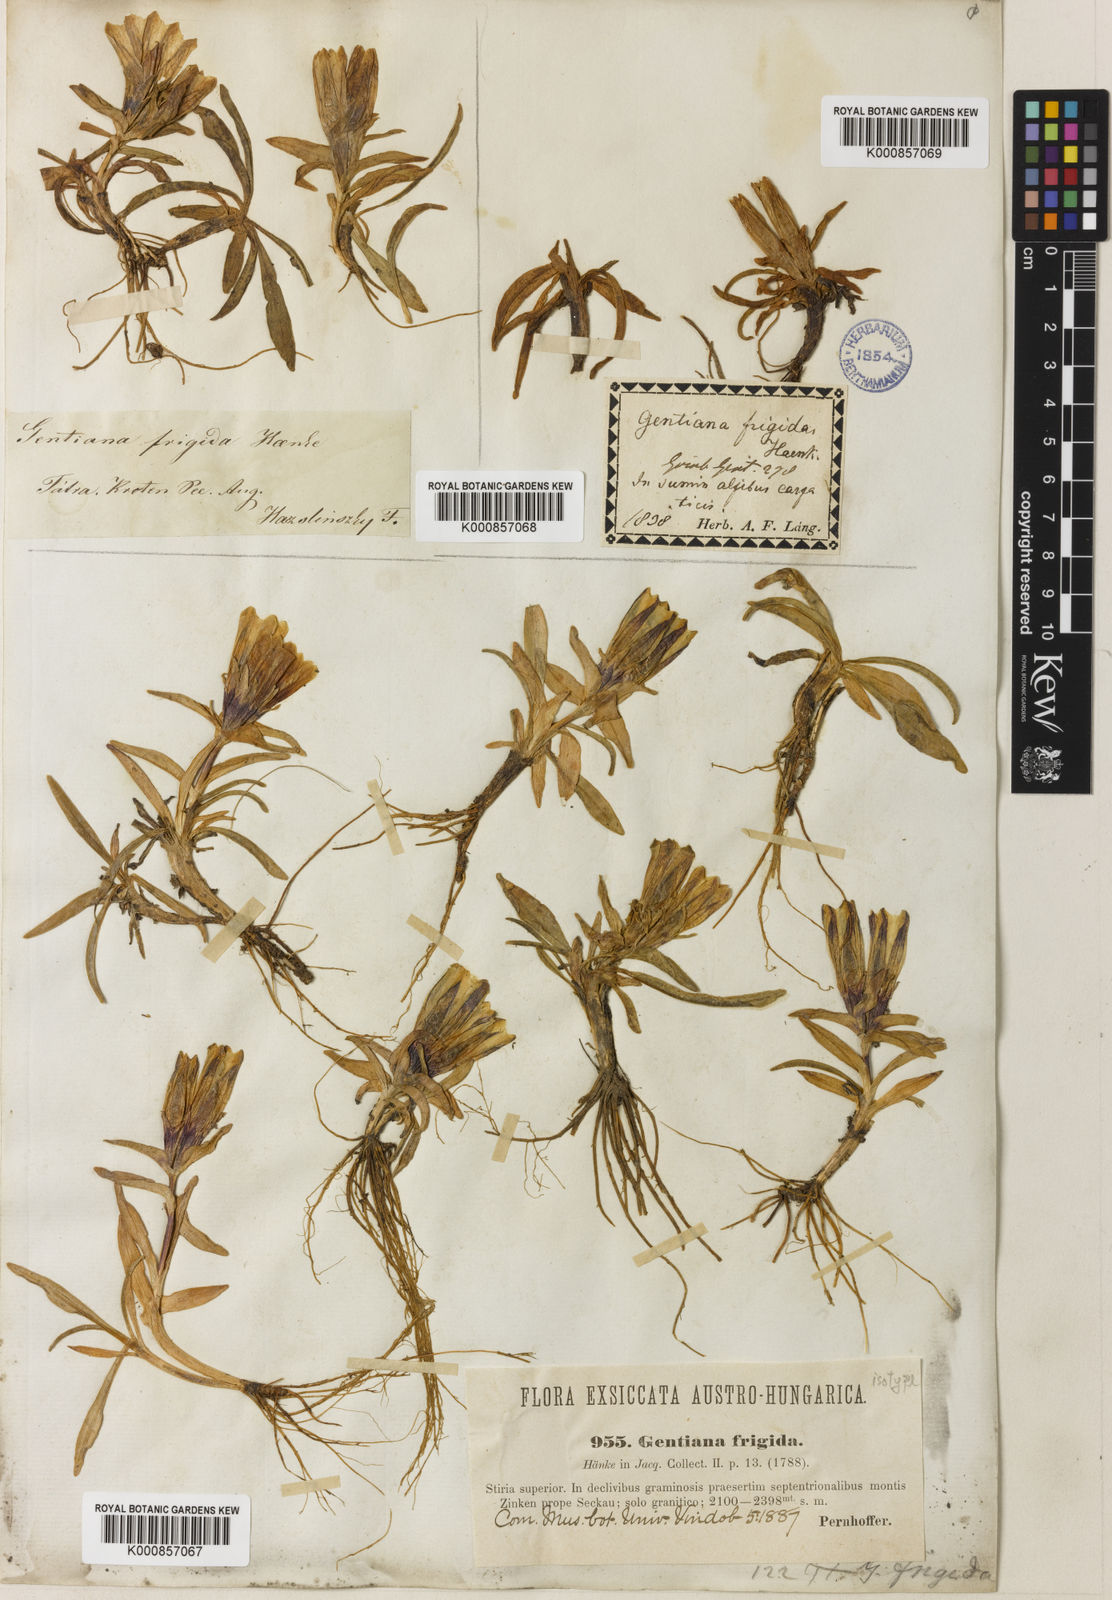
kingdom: Plantae
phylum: Tracheophyta
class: Magnoliopsida
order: Gentianales
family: Gentianaceae
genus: Gentiana
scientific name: Gentiana frigida
